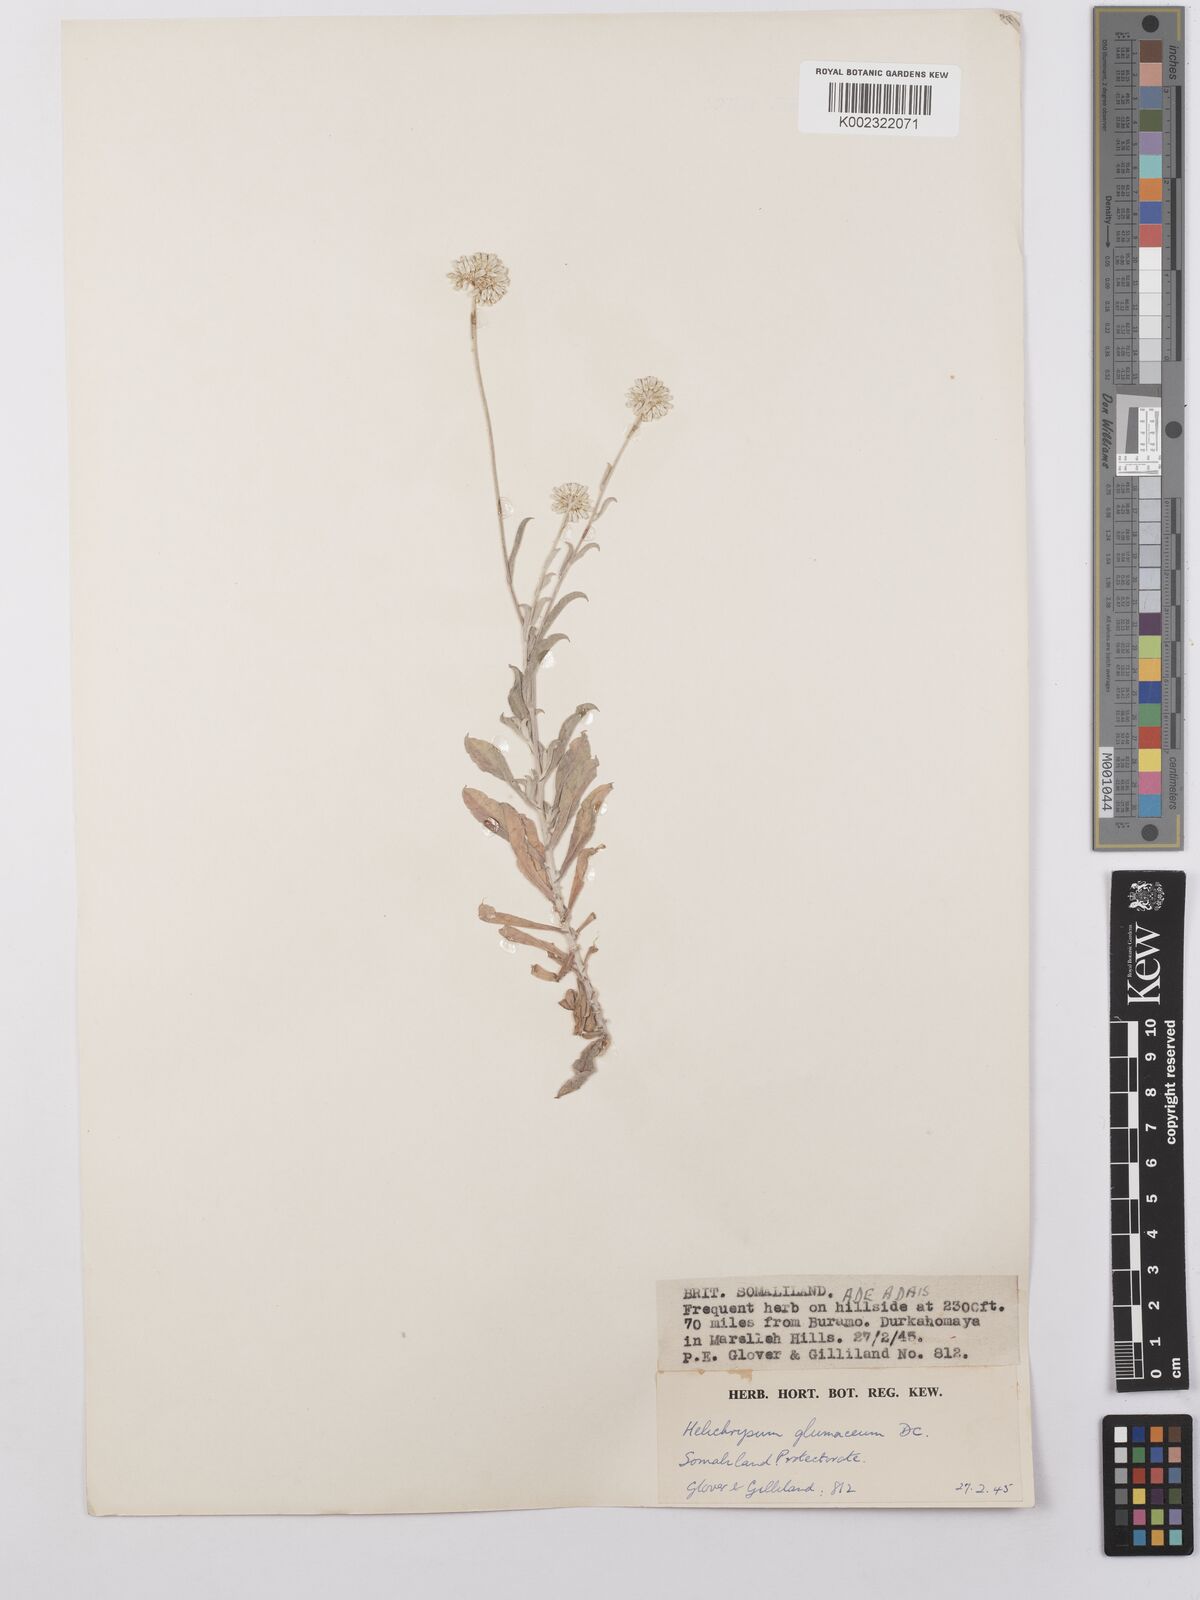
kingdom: Plantae
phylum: Tracheophyta
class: Magnoliopsida
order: Asterales
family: Asteraceae
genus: Helichrysum
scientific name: Helichrysum glumaceum
